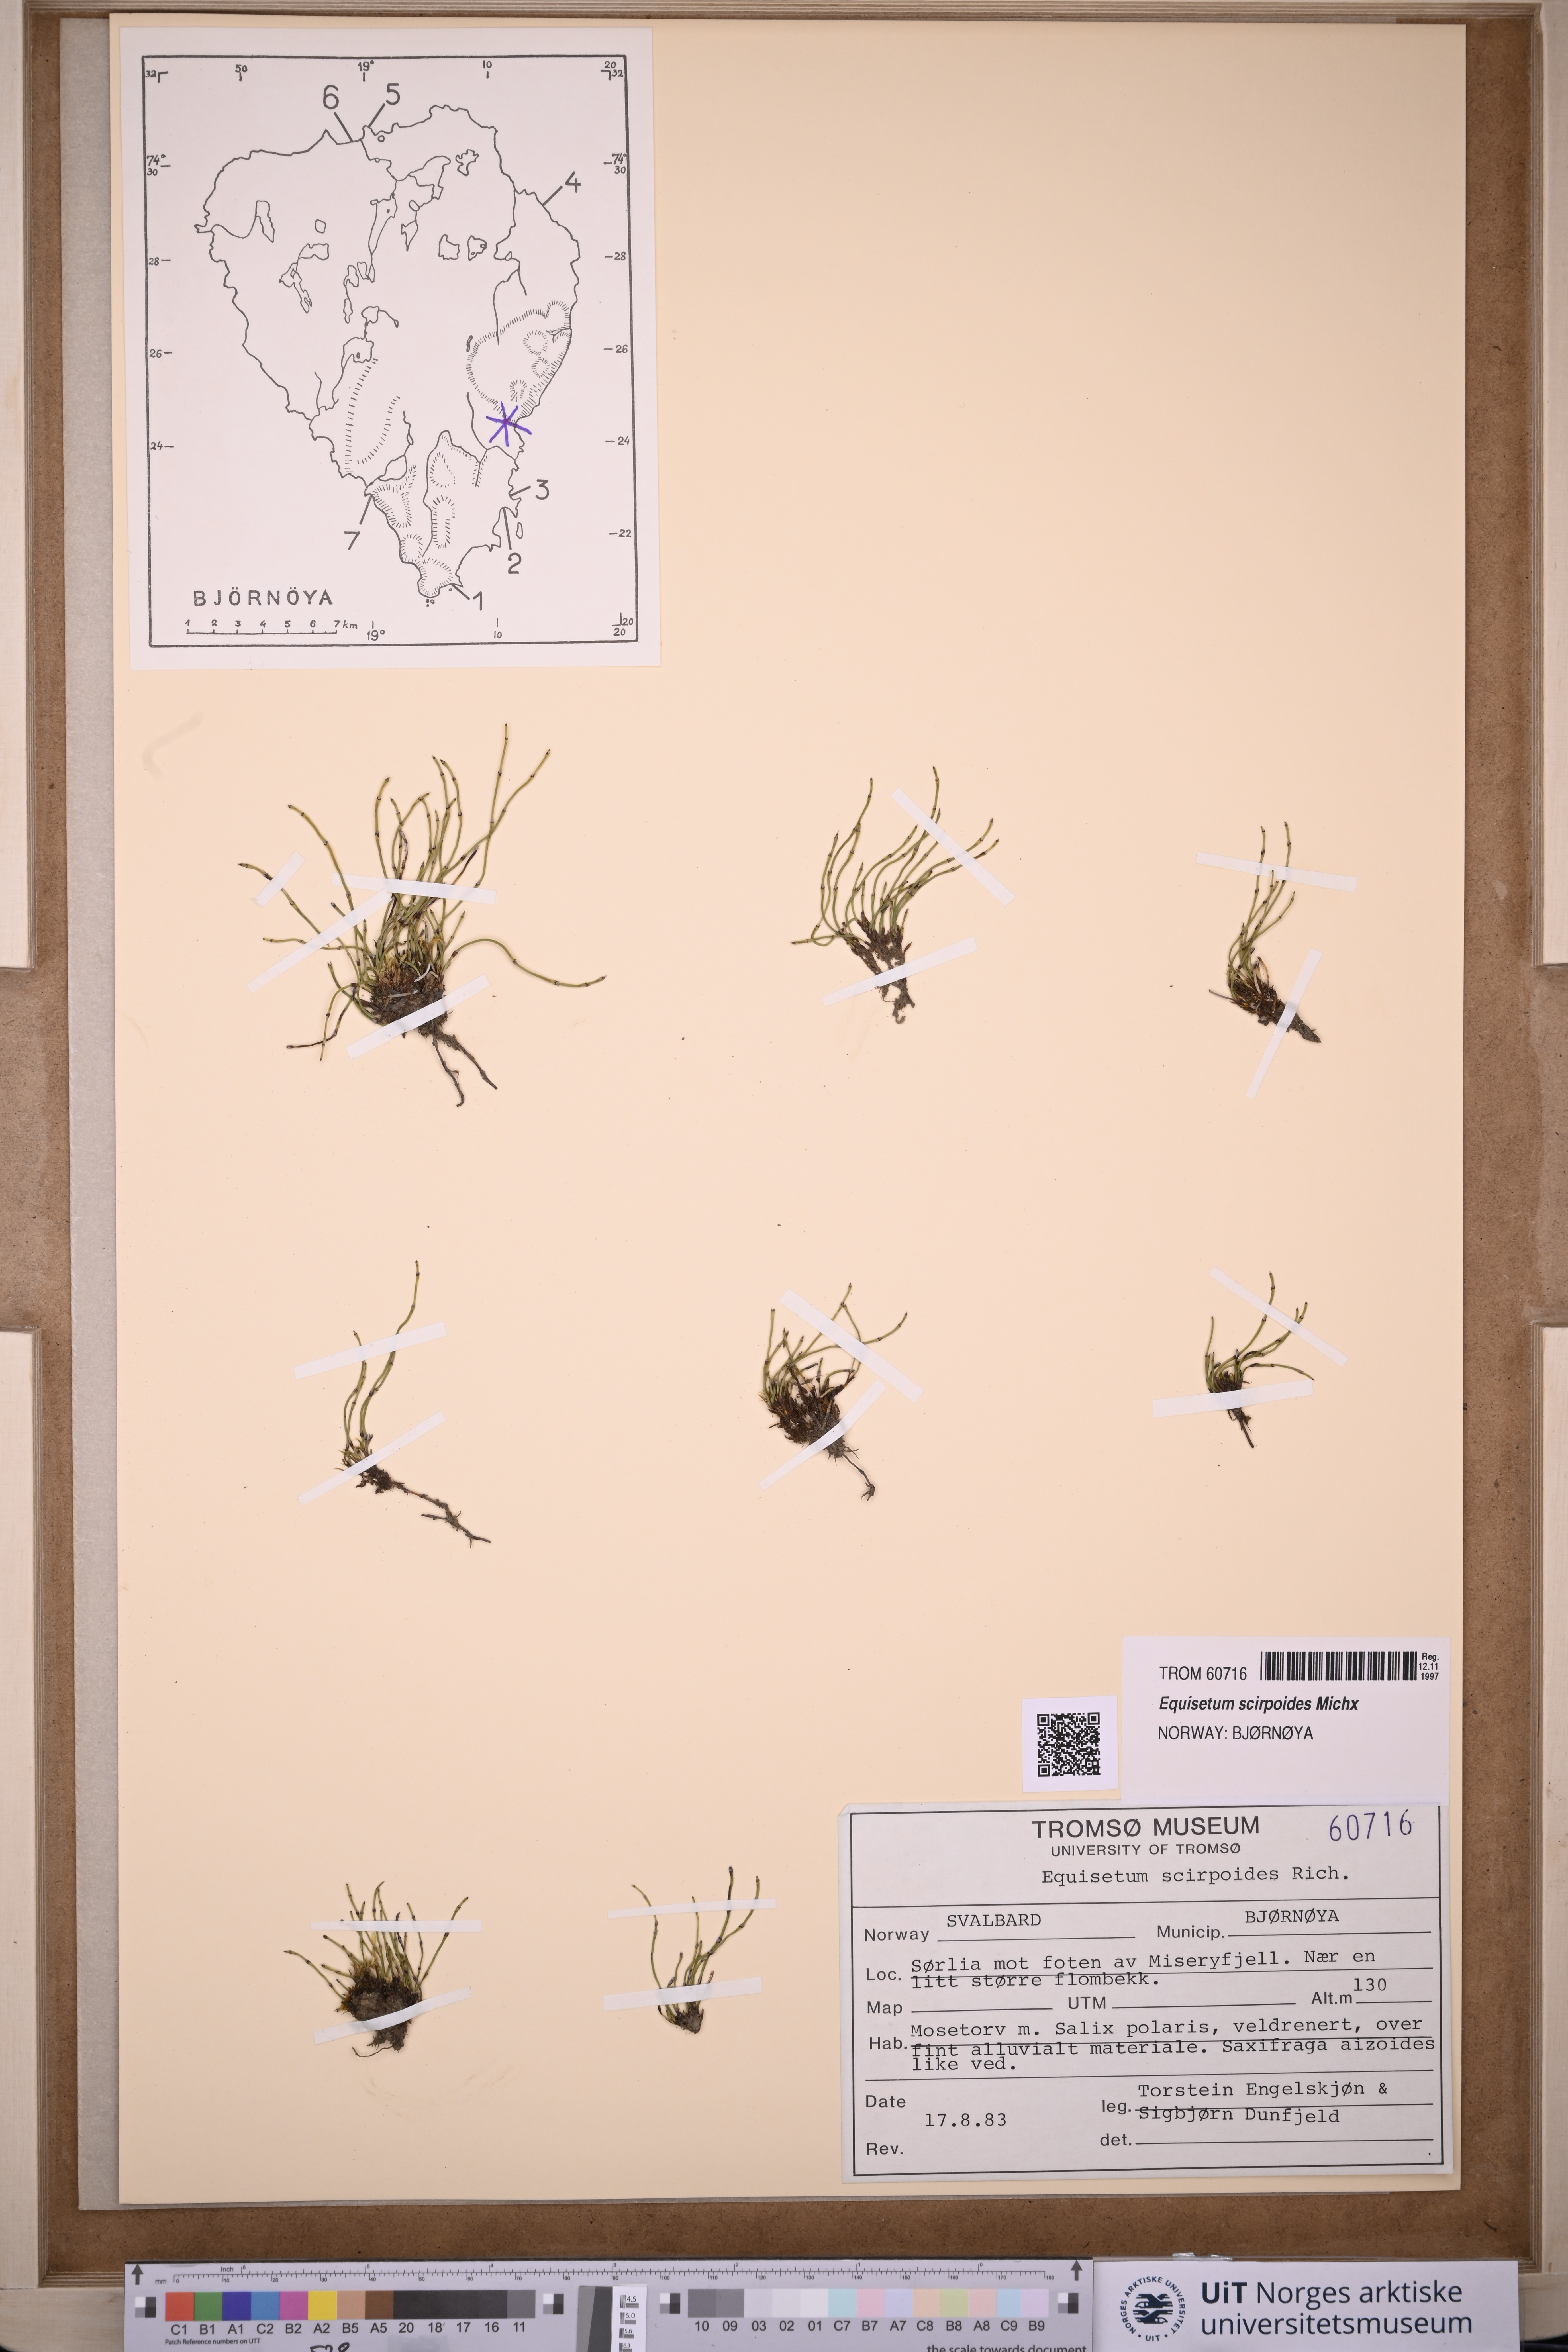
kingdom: Plantae
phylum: Tracheophyta
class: Polypodiopsida
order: Equisetales
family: Equisetaceae
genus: Equisetum
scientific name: Equisetum scirpoides
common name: Delicate horsetail
